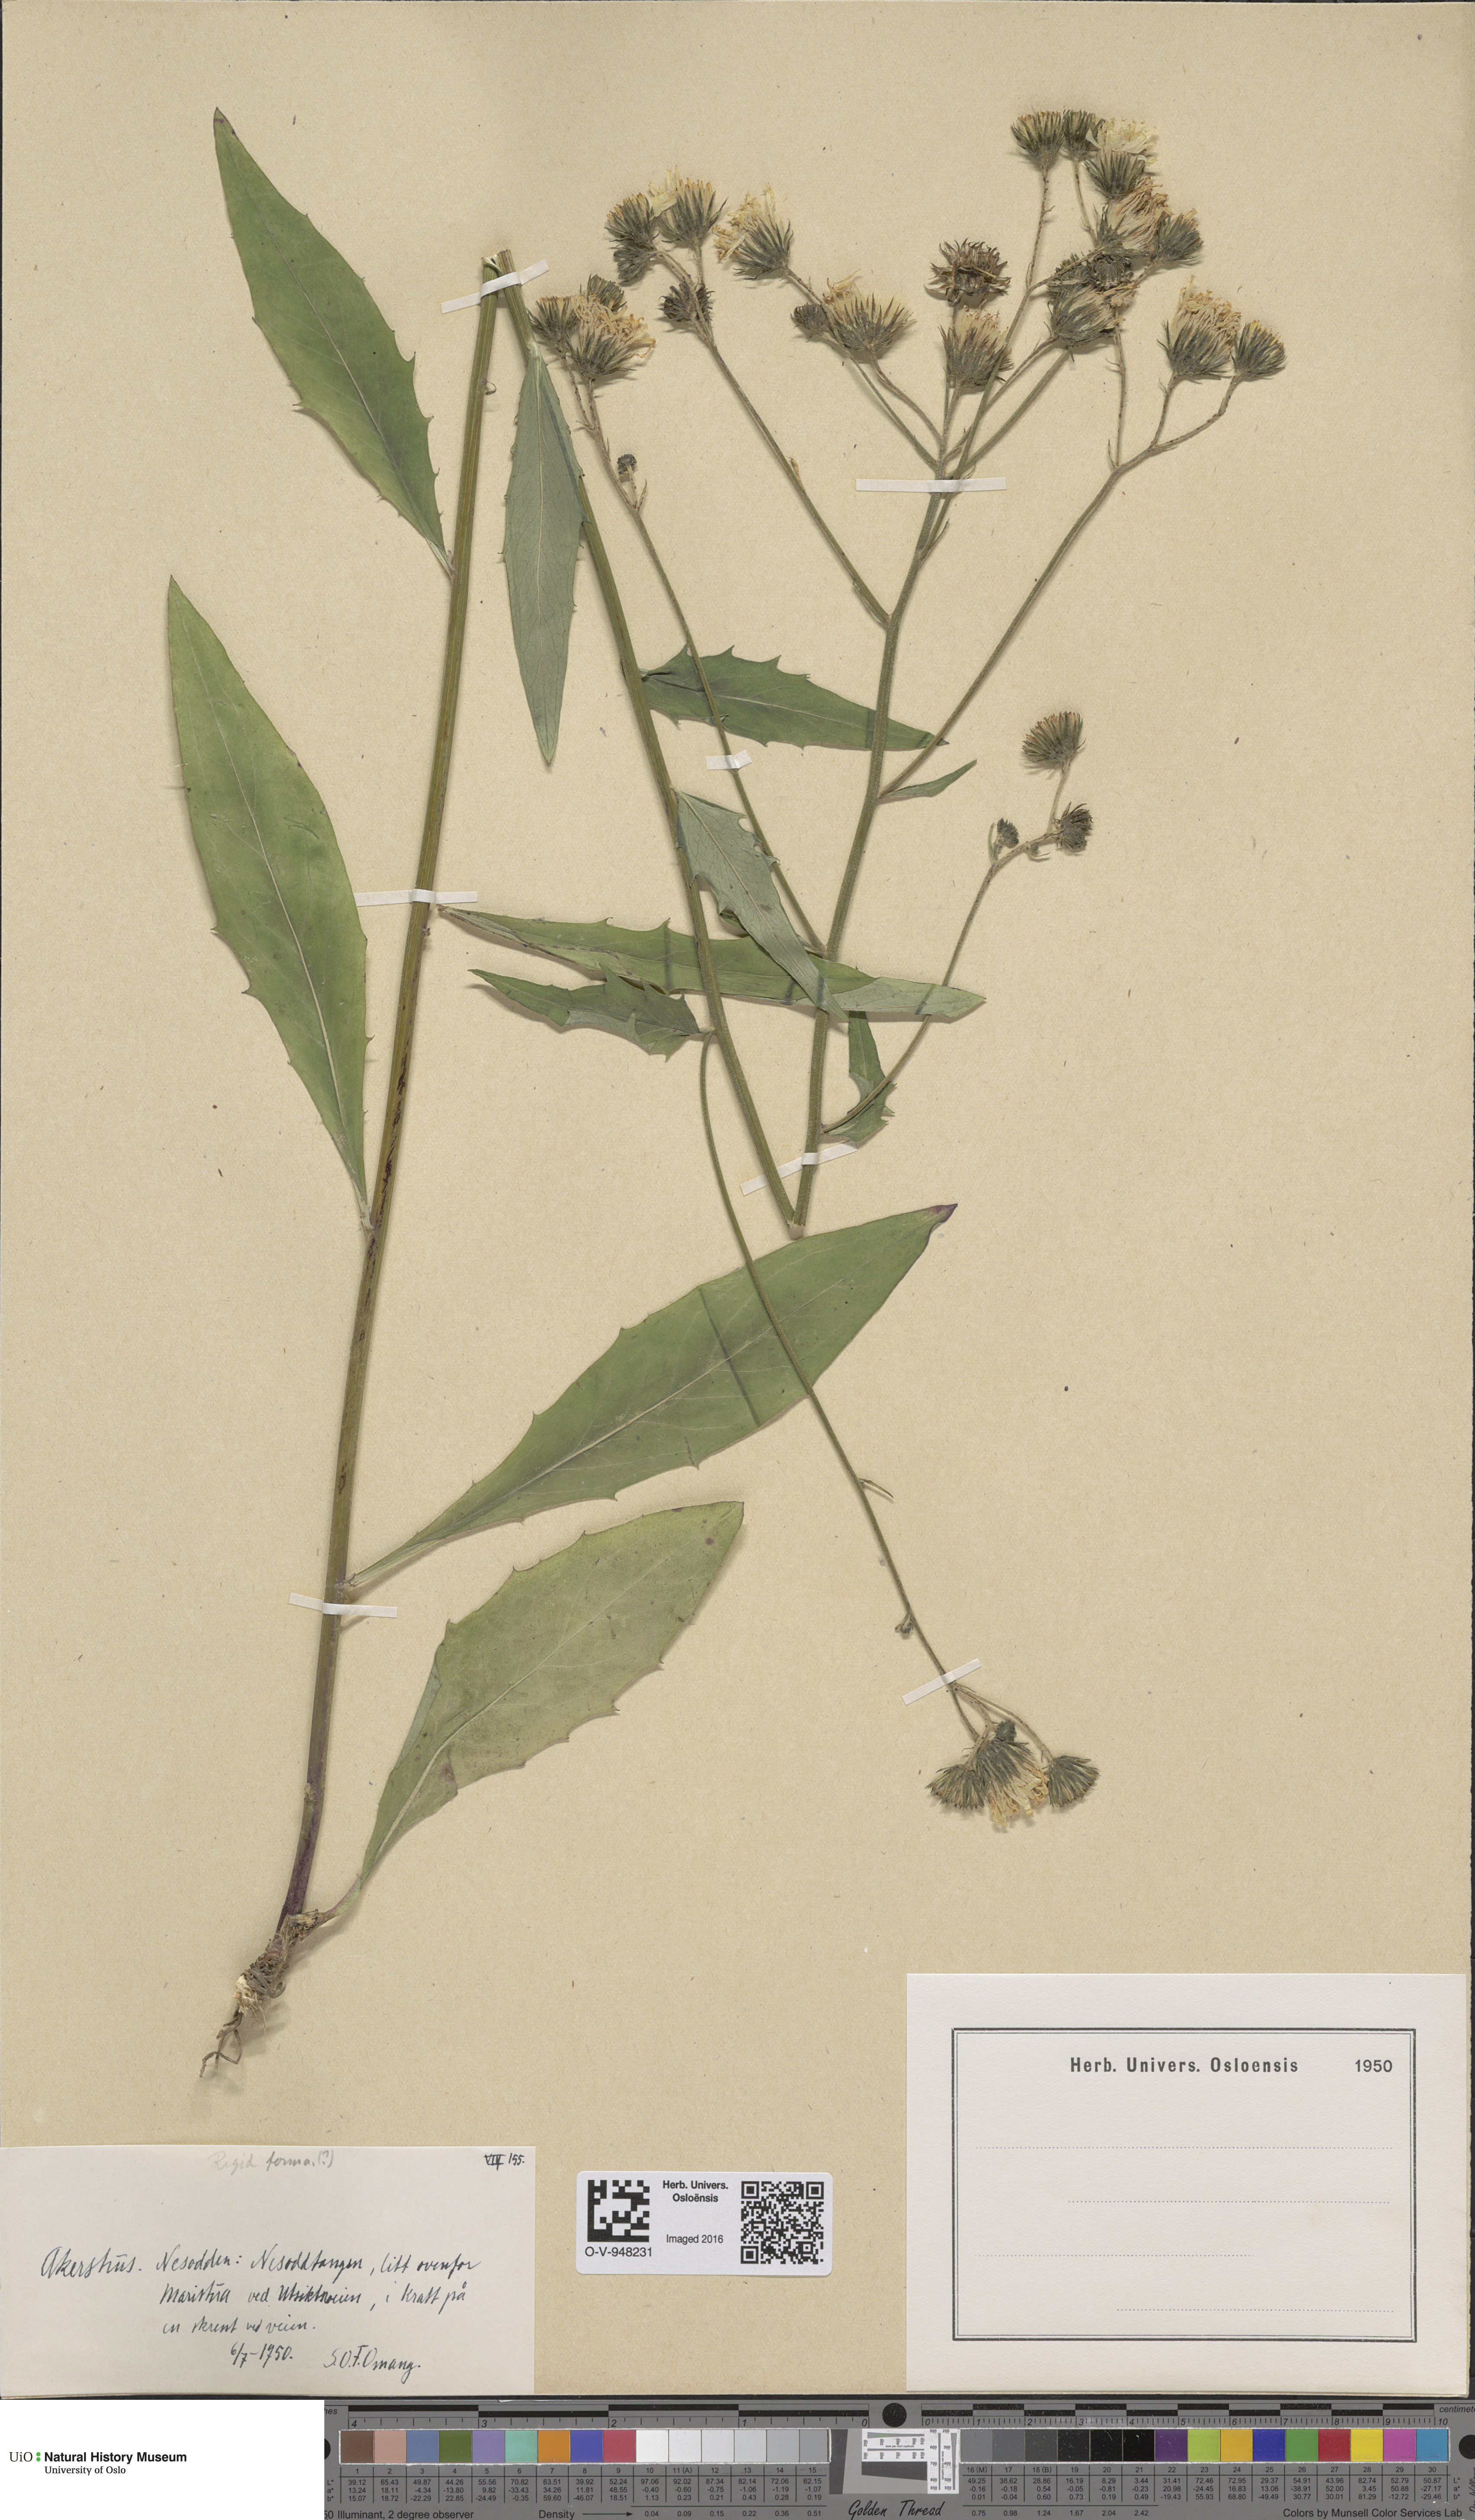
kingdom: Plantae
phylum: Tracheophyta
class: Magnoliopsida
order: Asterales
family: Asteraceae
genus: Hieracium
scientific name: Hieracium
